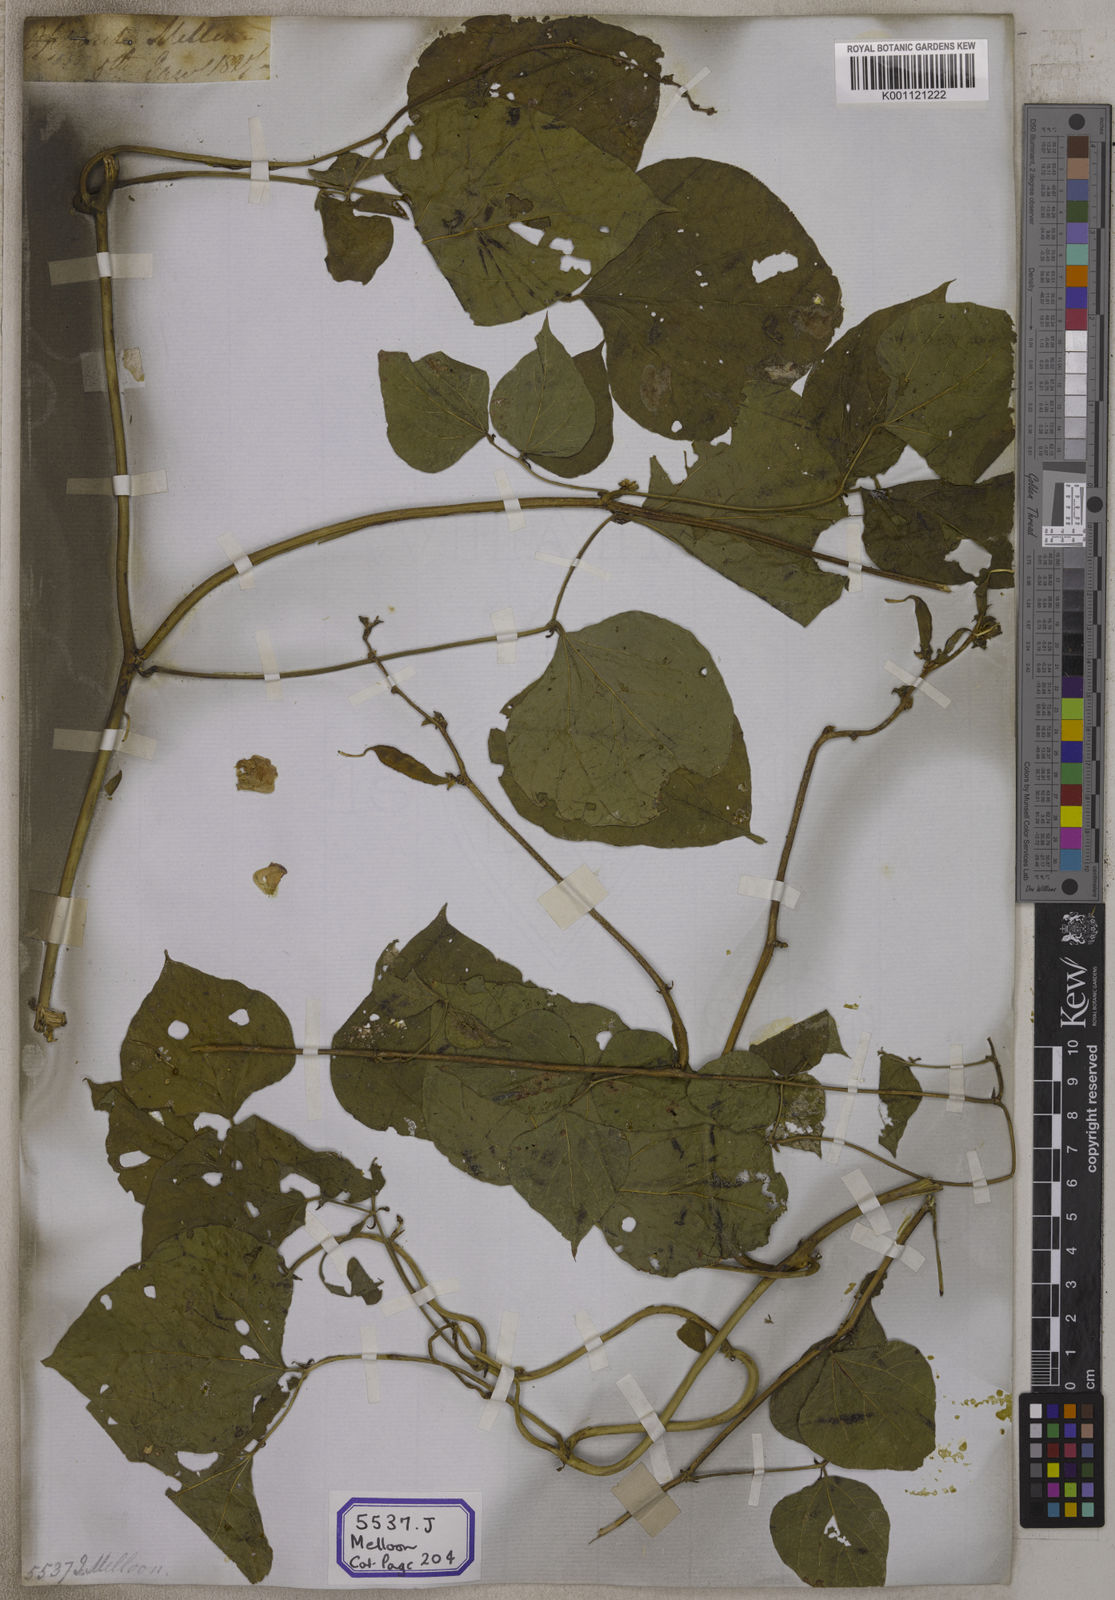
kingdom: Plantae
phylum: Tracheophyta
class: Magnoliopsida
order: Fabales
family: Fabaceae
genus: Lablab
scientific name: Lablab purpureus
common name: Lablab-bean
